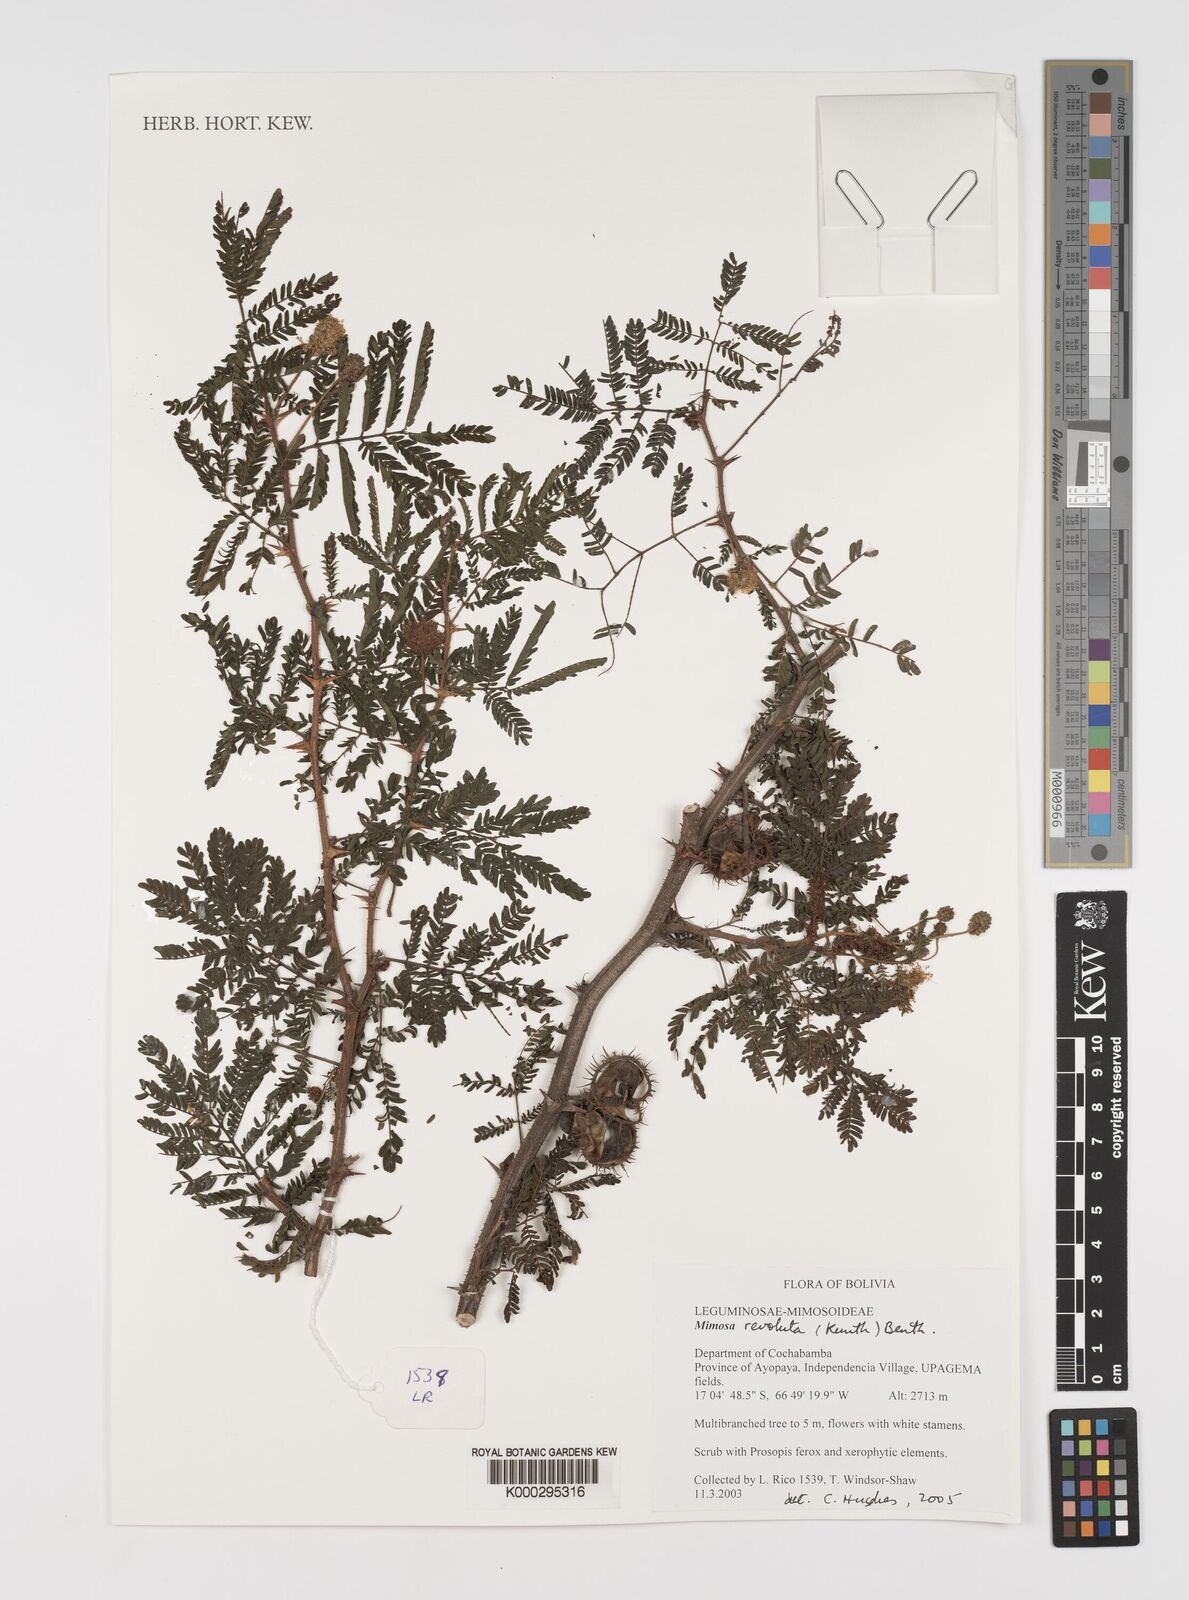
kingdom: Plantae
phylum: Tracheophyta
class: Magnoliopsida
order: Fabales
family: Fabaceae
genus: Mimosa
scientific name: Mimosa revoluta
